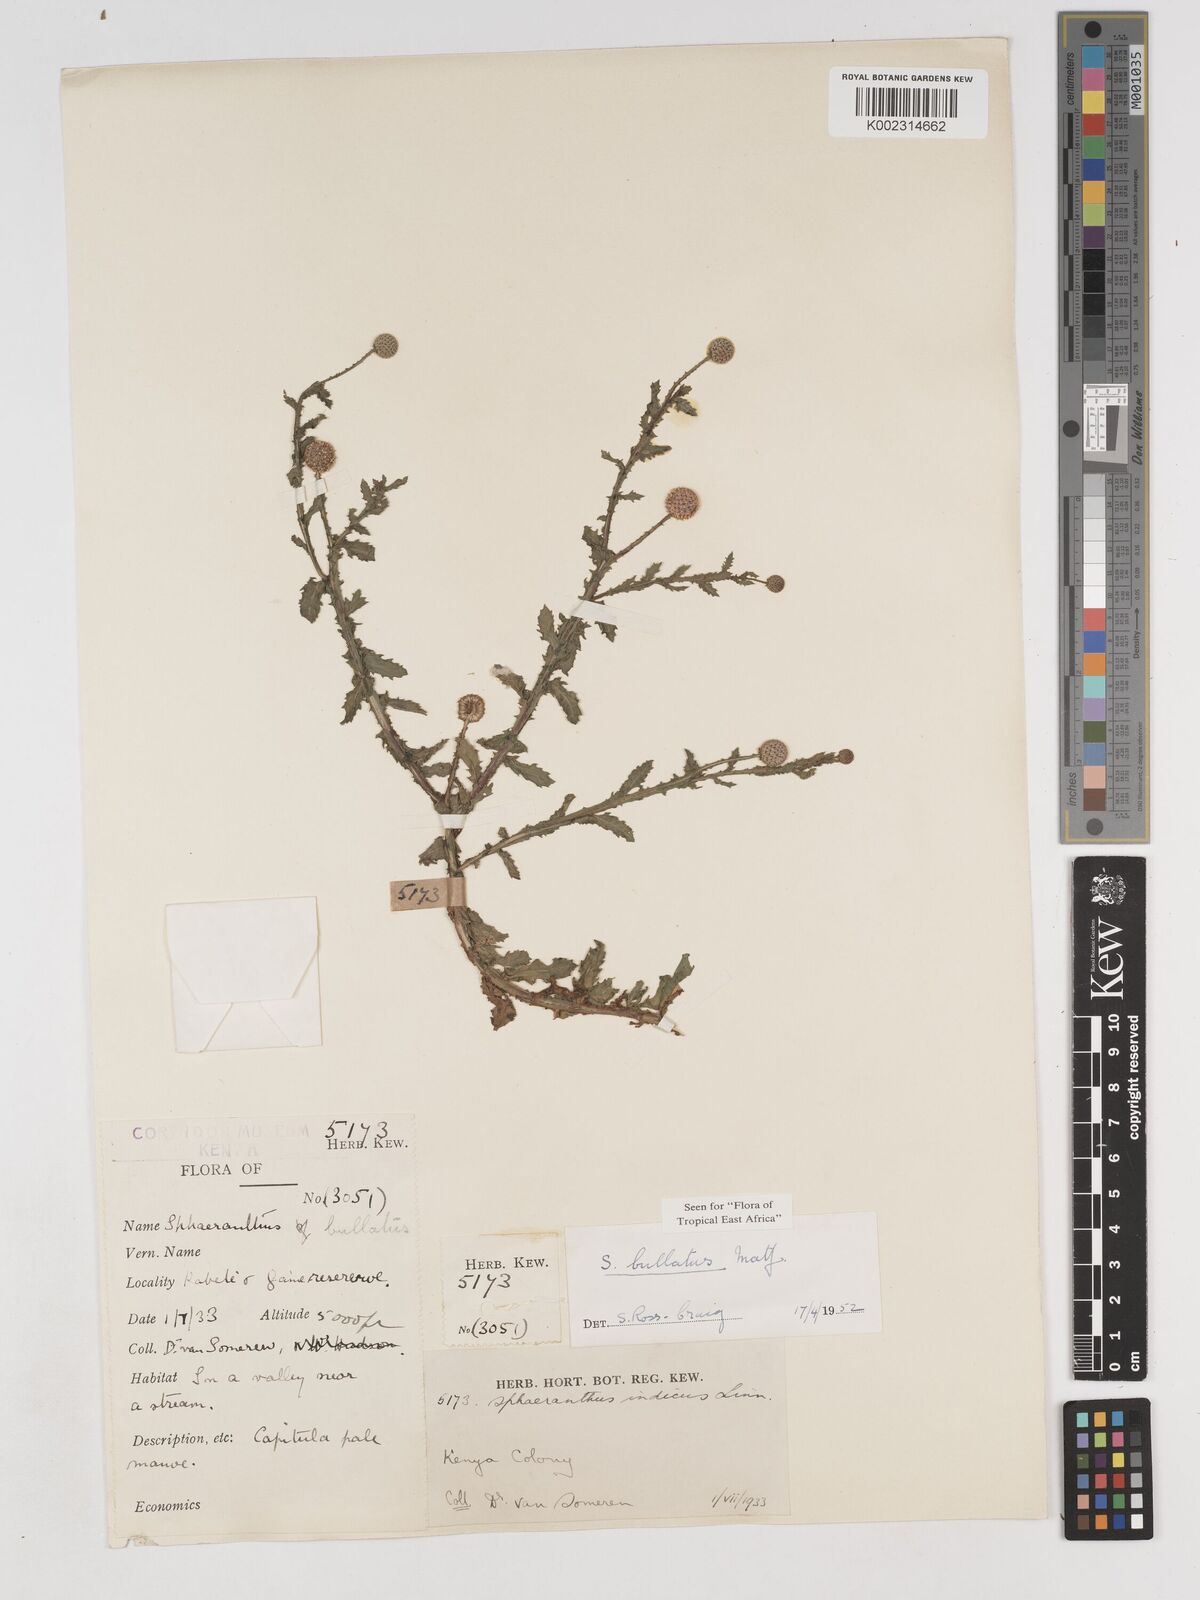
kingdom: Plantae
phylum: Tracheophyta
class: Magnoliopsida
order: Asterales
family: Asteraceae
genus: Sphaeranthus
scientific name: Sphaeranthus bullatus
